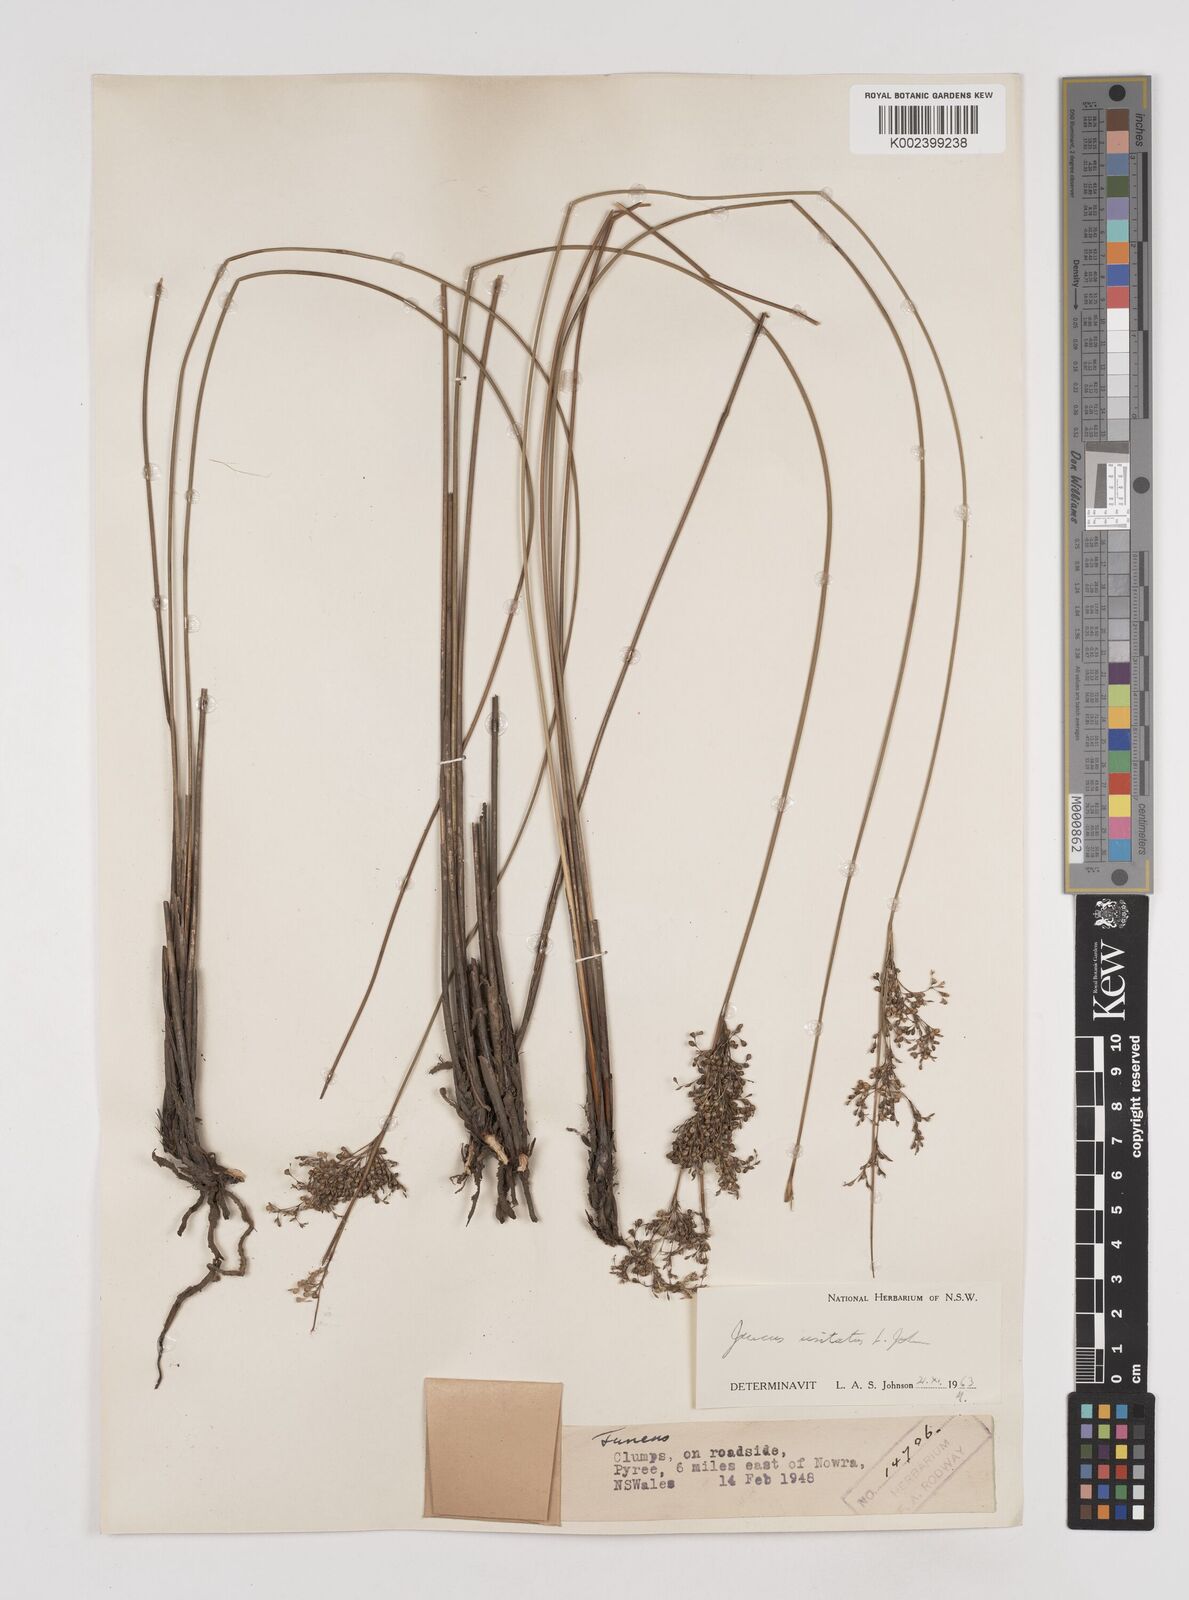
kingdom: Plantae
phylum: Tracheophyta
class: Liliopsida
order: Poales
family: Juncaceae
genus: Juncus
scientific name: Juncus usitatus
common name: Rush
